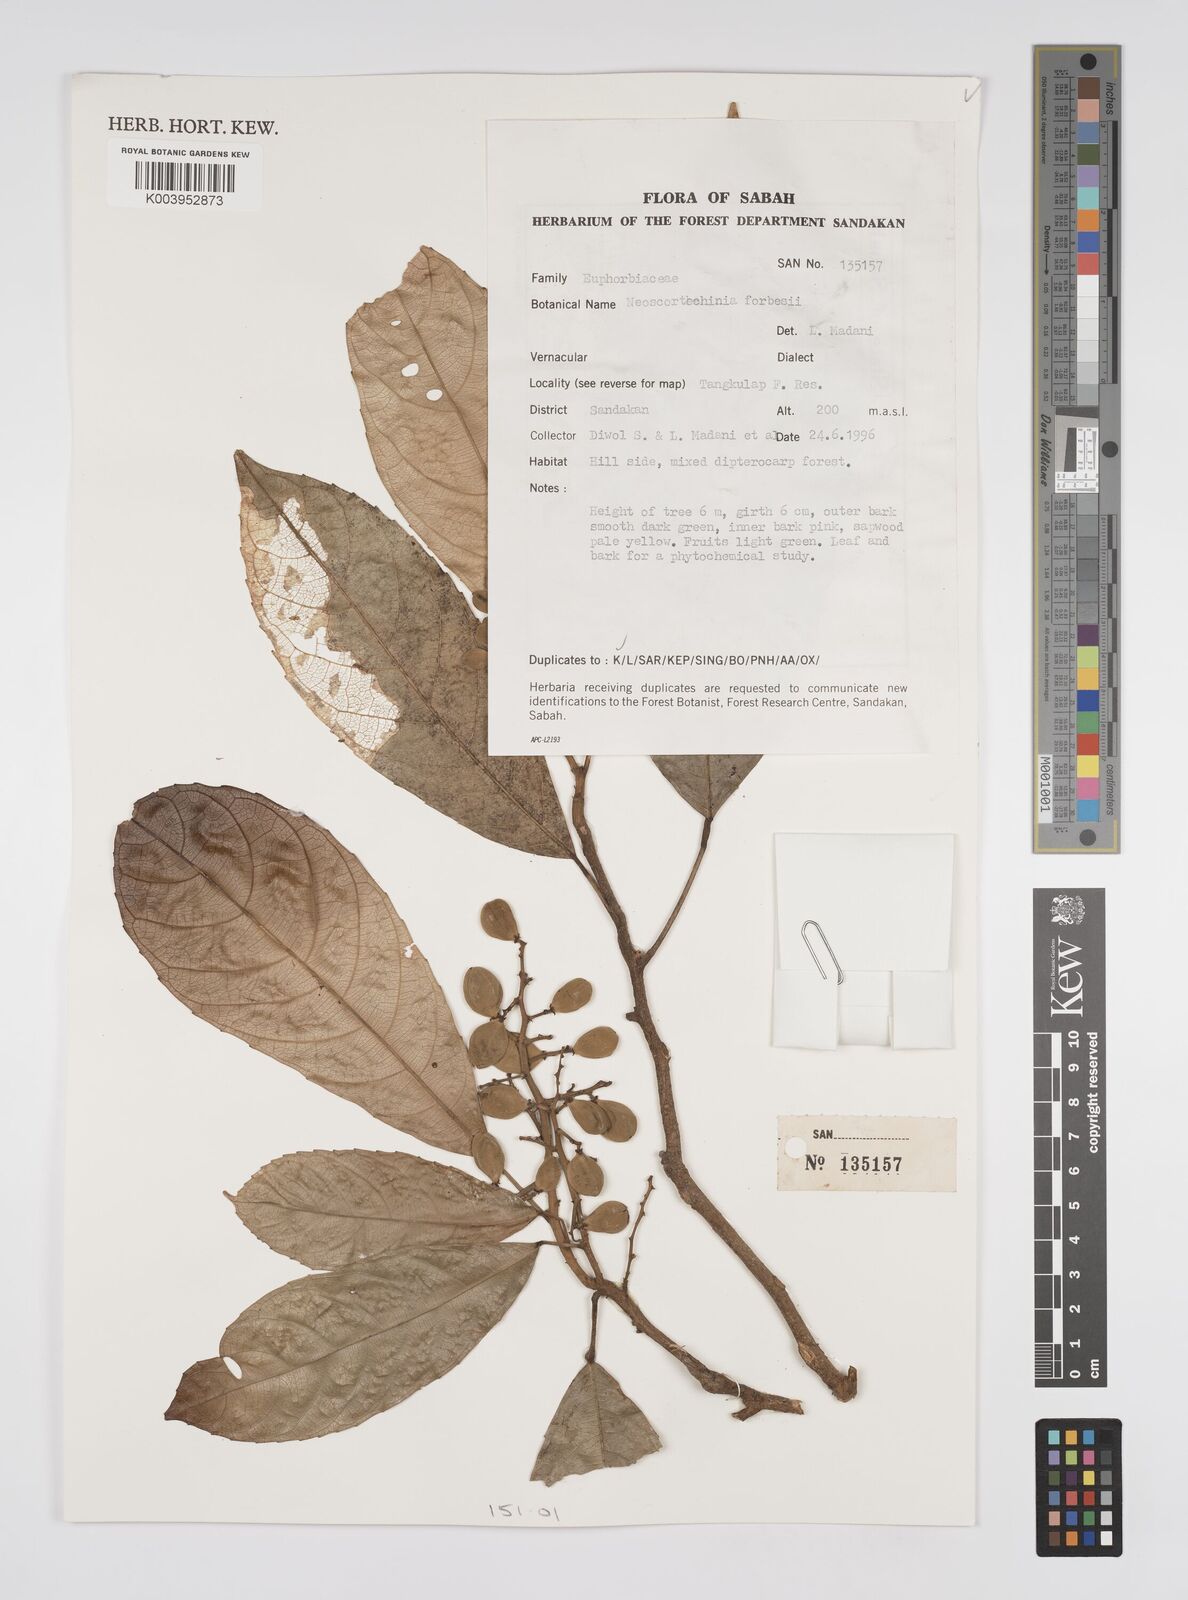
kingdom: Plantae
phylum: Tracheophyta
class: Magnoliopsida
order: Malpighiales
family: Euphorbiaceae
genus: Neoscortechinia
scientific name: Neoscortechinia philippinensis
